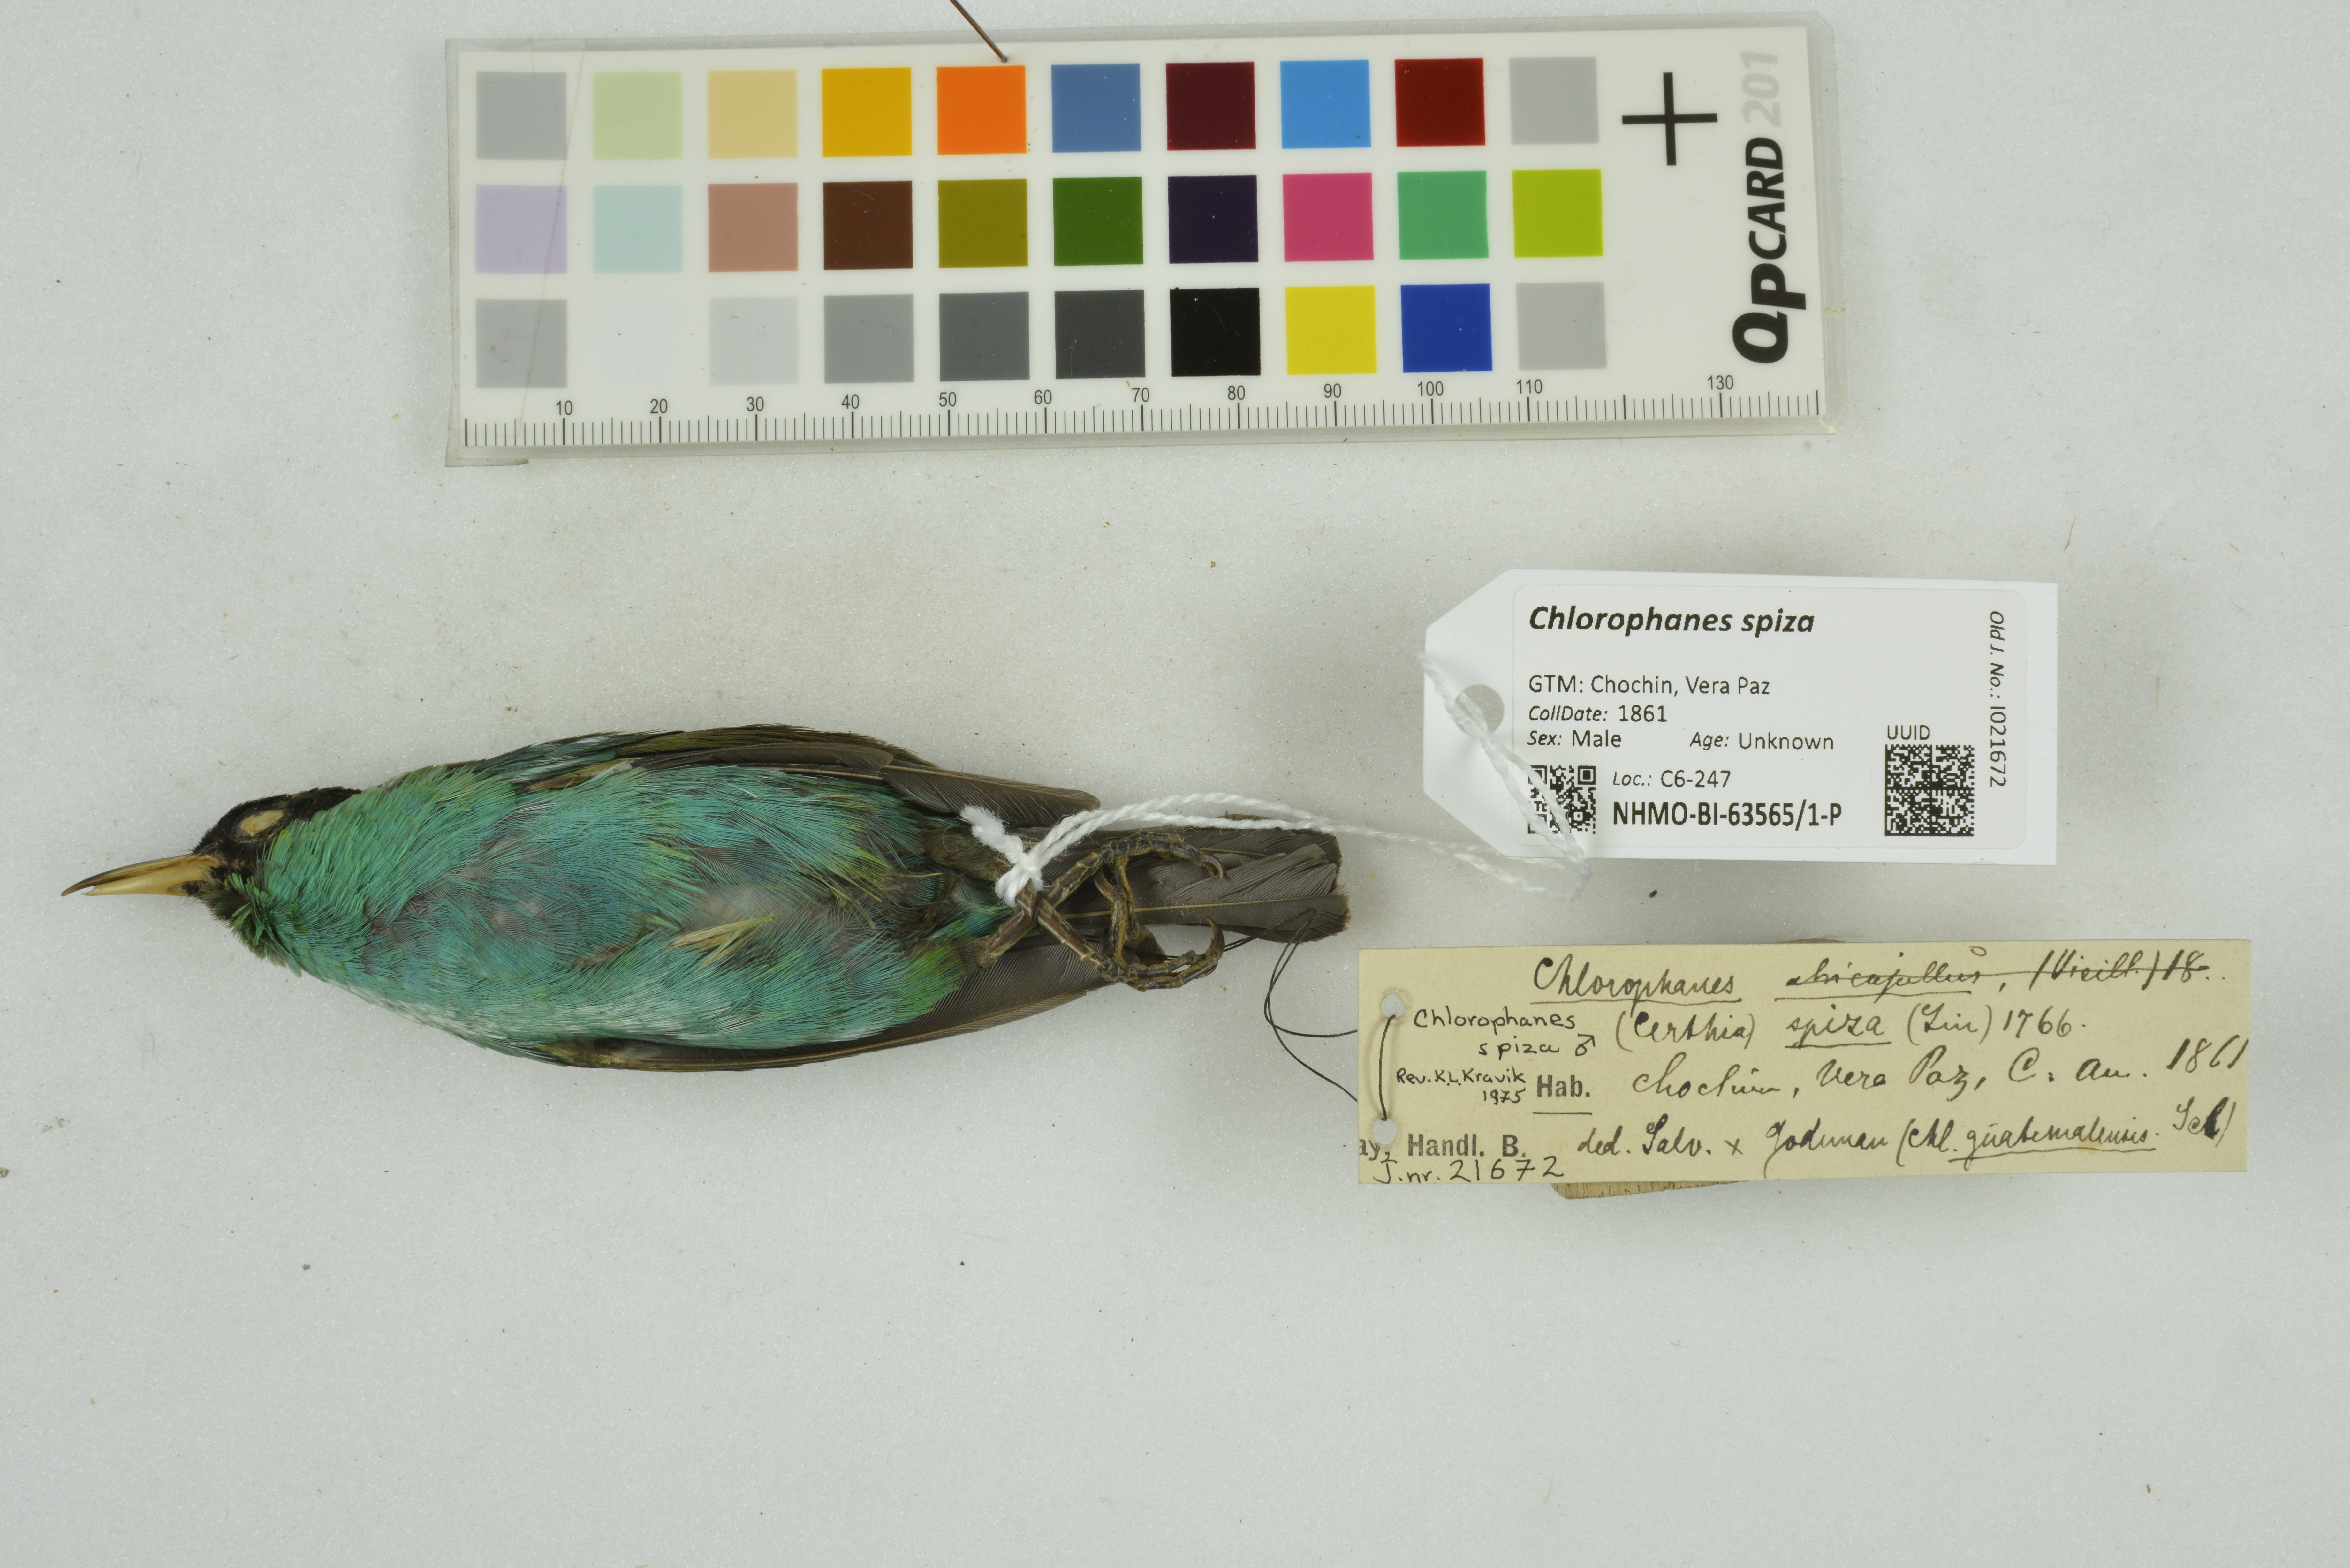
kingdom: Animalia
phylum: Chordata
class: Aves
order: Passeriformes
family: Thraupidae
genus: Chlorophanes
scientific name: Chlorophanes spiza
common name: Green honeycreeper
